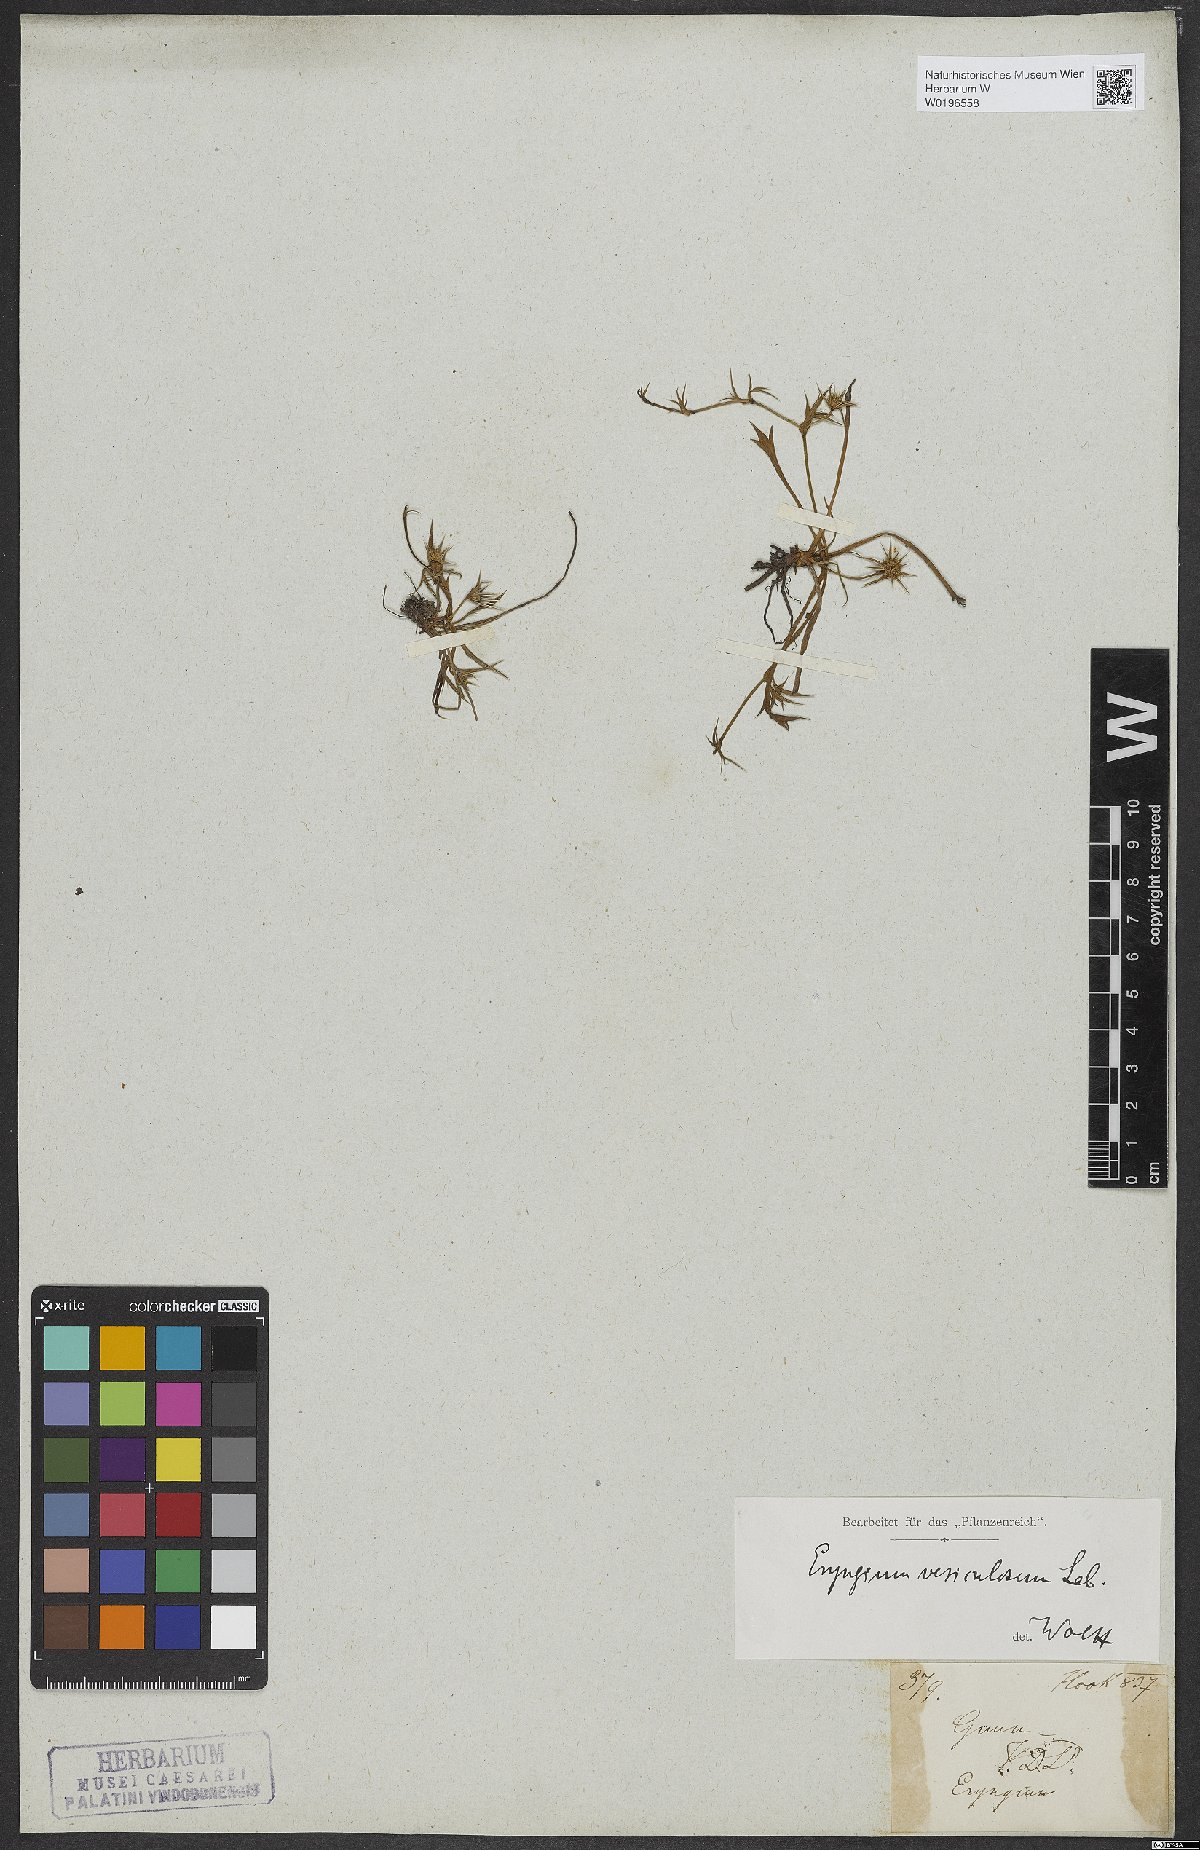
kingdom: Plantae
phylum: Tracheophyta
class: Magnoliopsida
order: Apiales
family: Apiaceae
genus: Eryngium
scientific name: Eryngium vesiculosum
